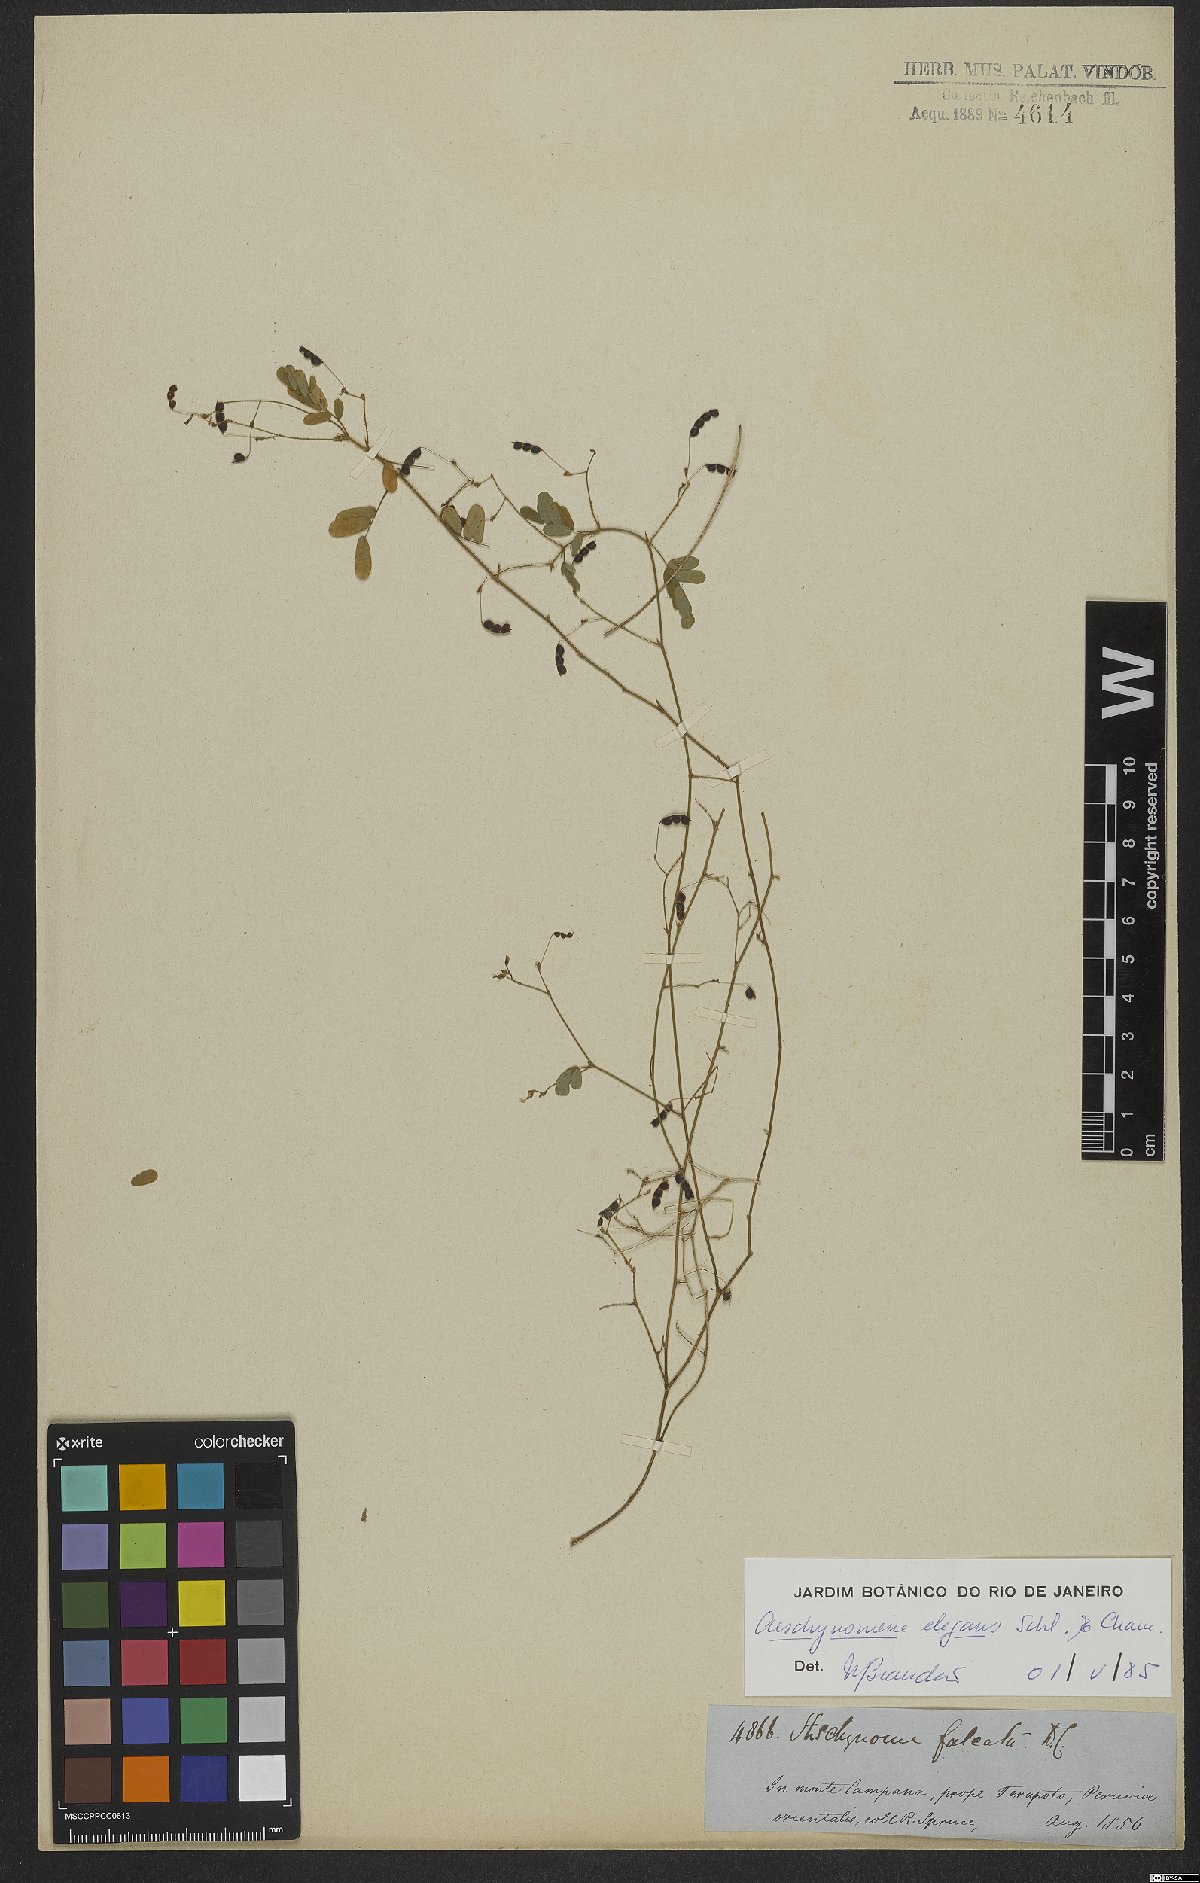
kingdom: Plantae
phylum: Tracheophyta
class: Magnoliopsida
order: Fabales
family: Fabaceae
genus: Ctenodon
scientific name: Ctenodon elegans
